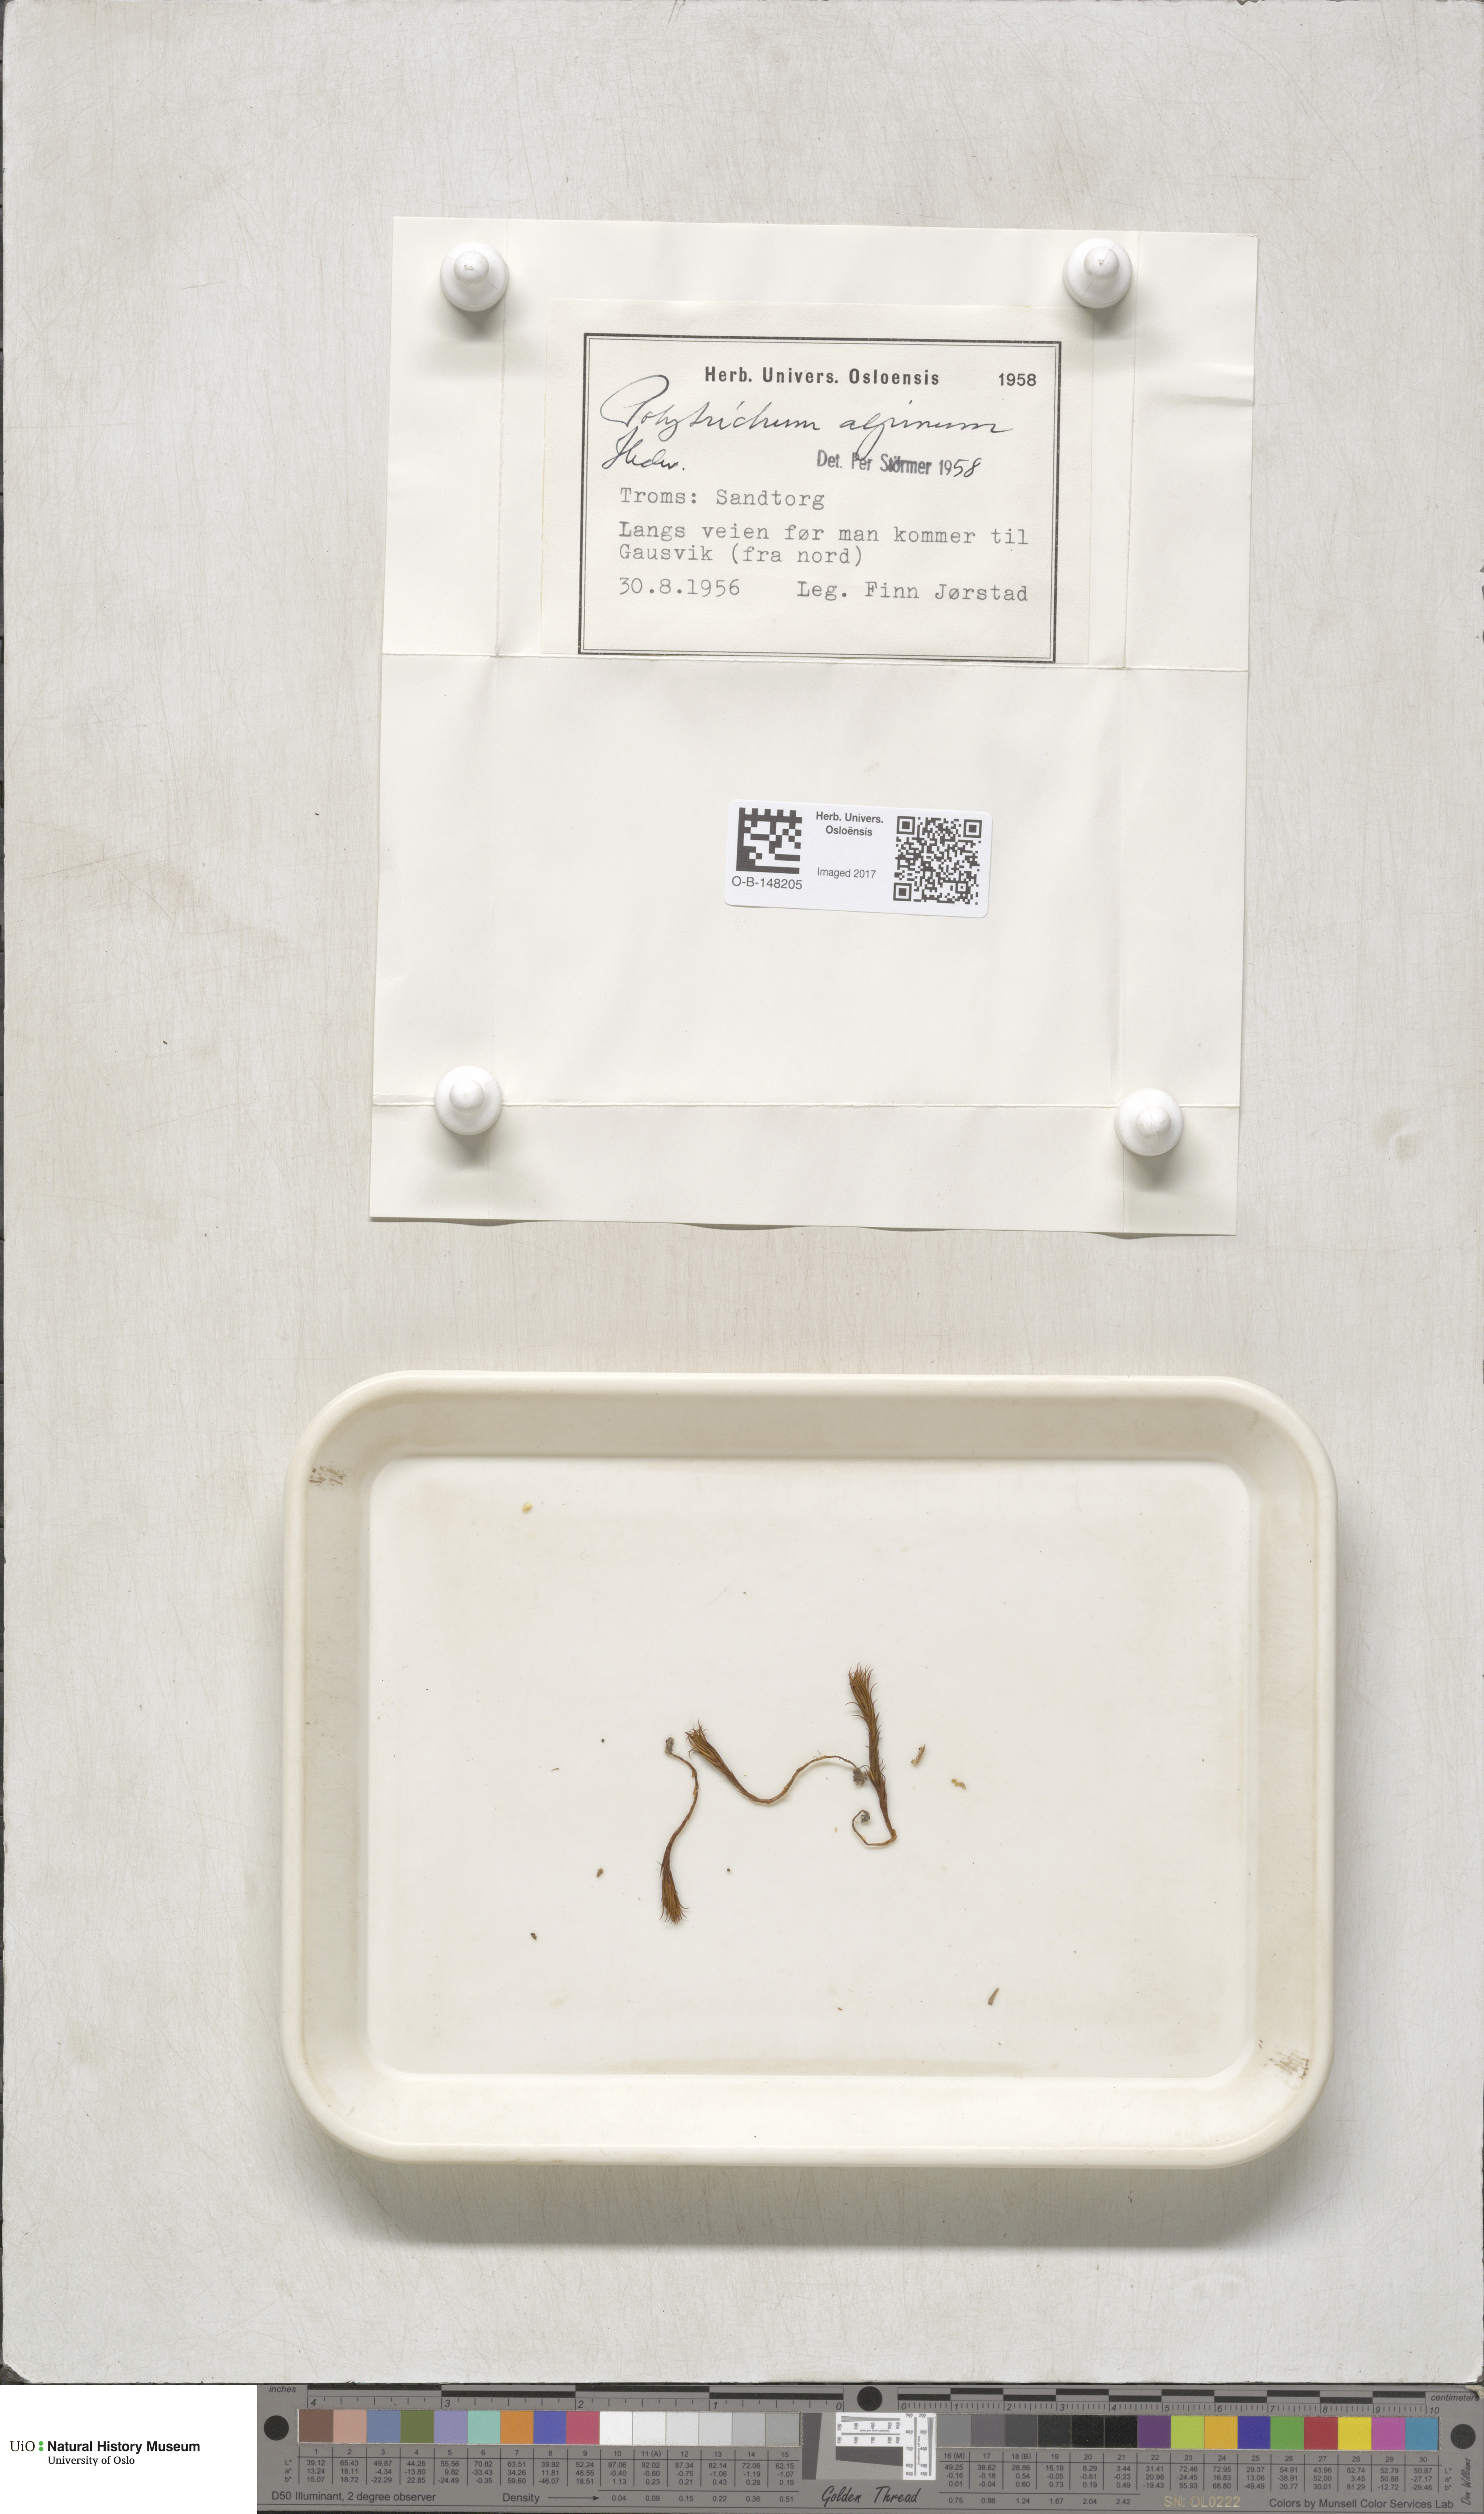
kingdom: Plantae
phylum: Bryophyta
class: Polytrichopsida
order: Polytrichales
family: Polytrichaceae
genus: Polytrichastrum
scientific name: Polytrichastrum alpinum
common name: Alpine haircap
